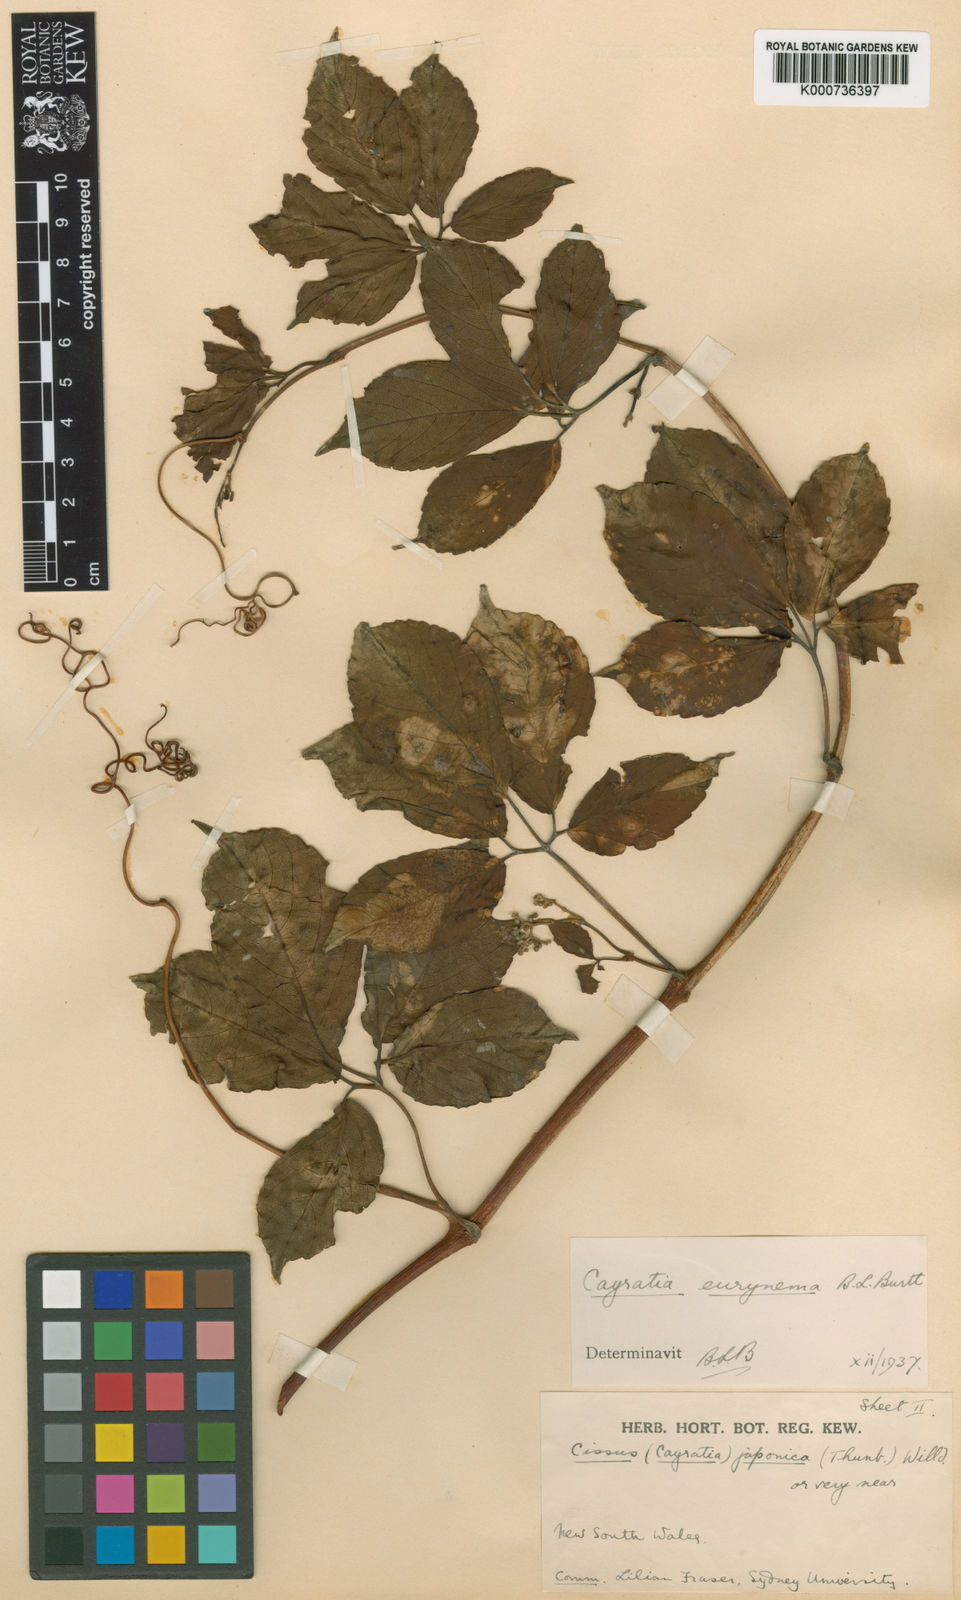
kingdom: Plantae
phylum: Tracheophyta
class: Magnoliopsida
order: Vitales
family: Vitaceae
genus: Causonis
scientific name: Causonis eurynema
